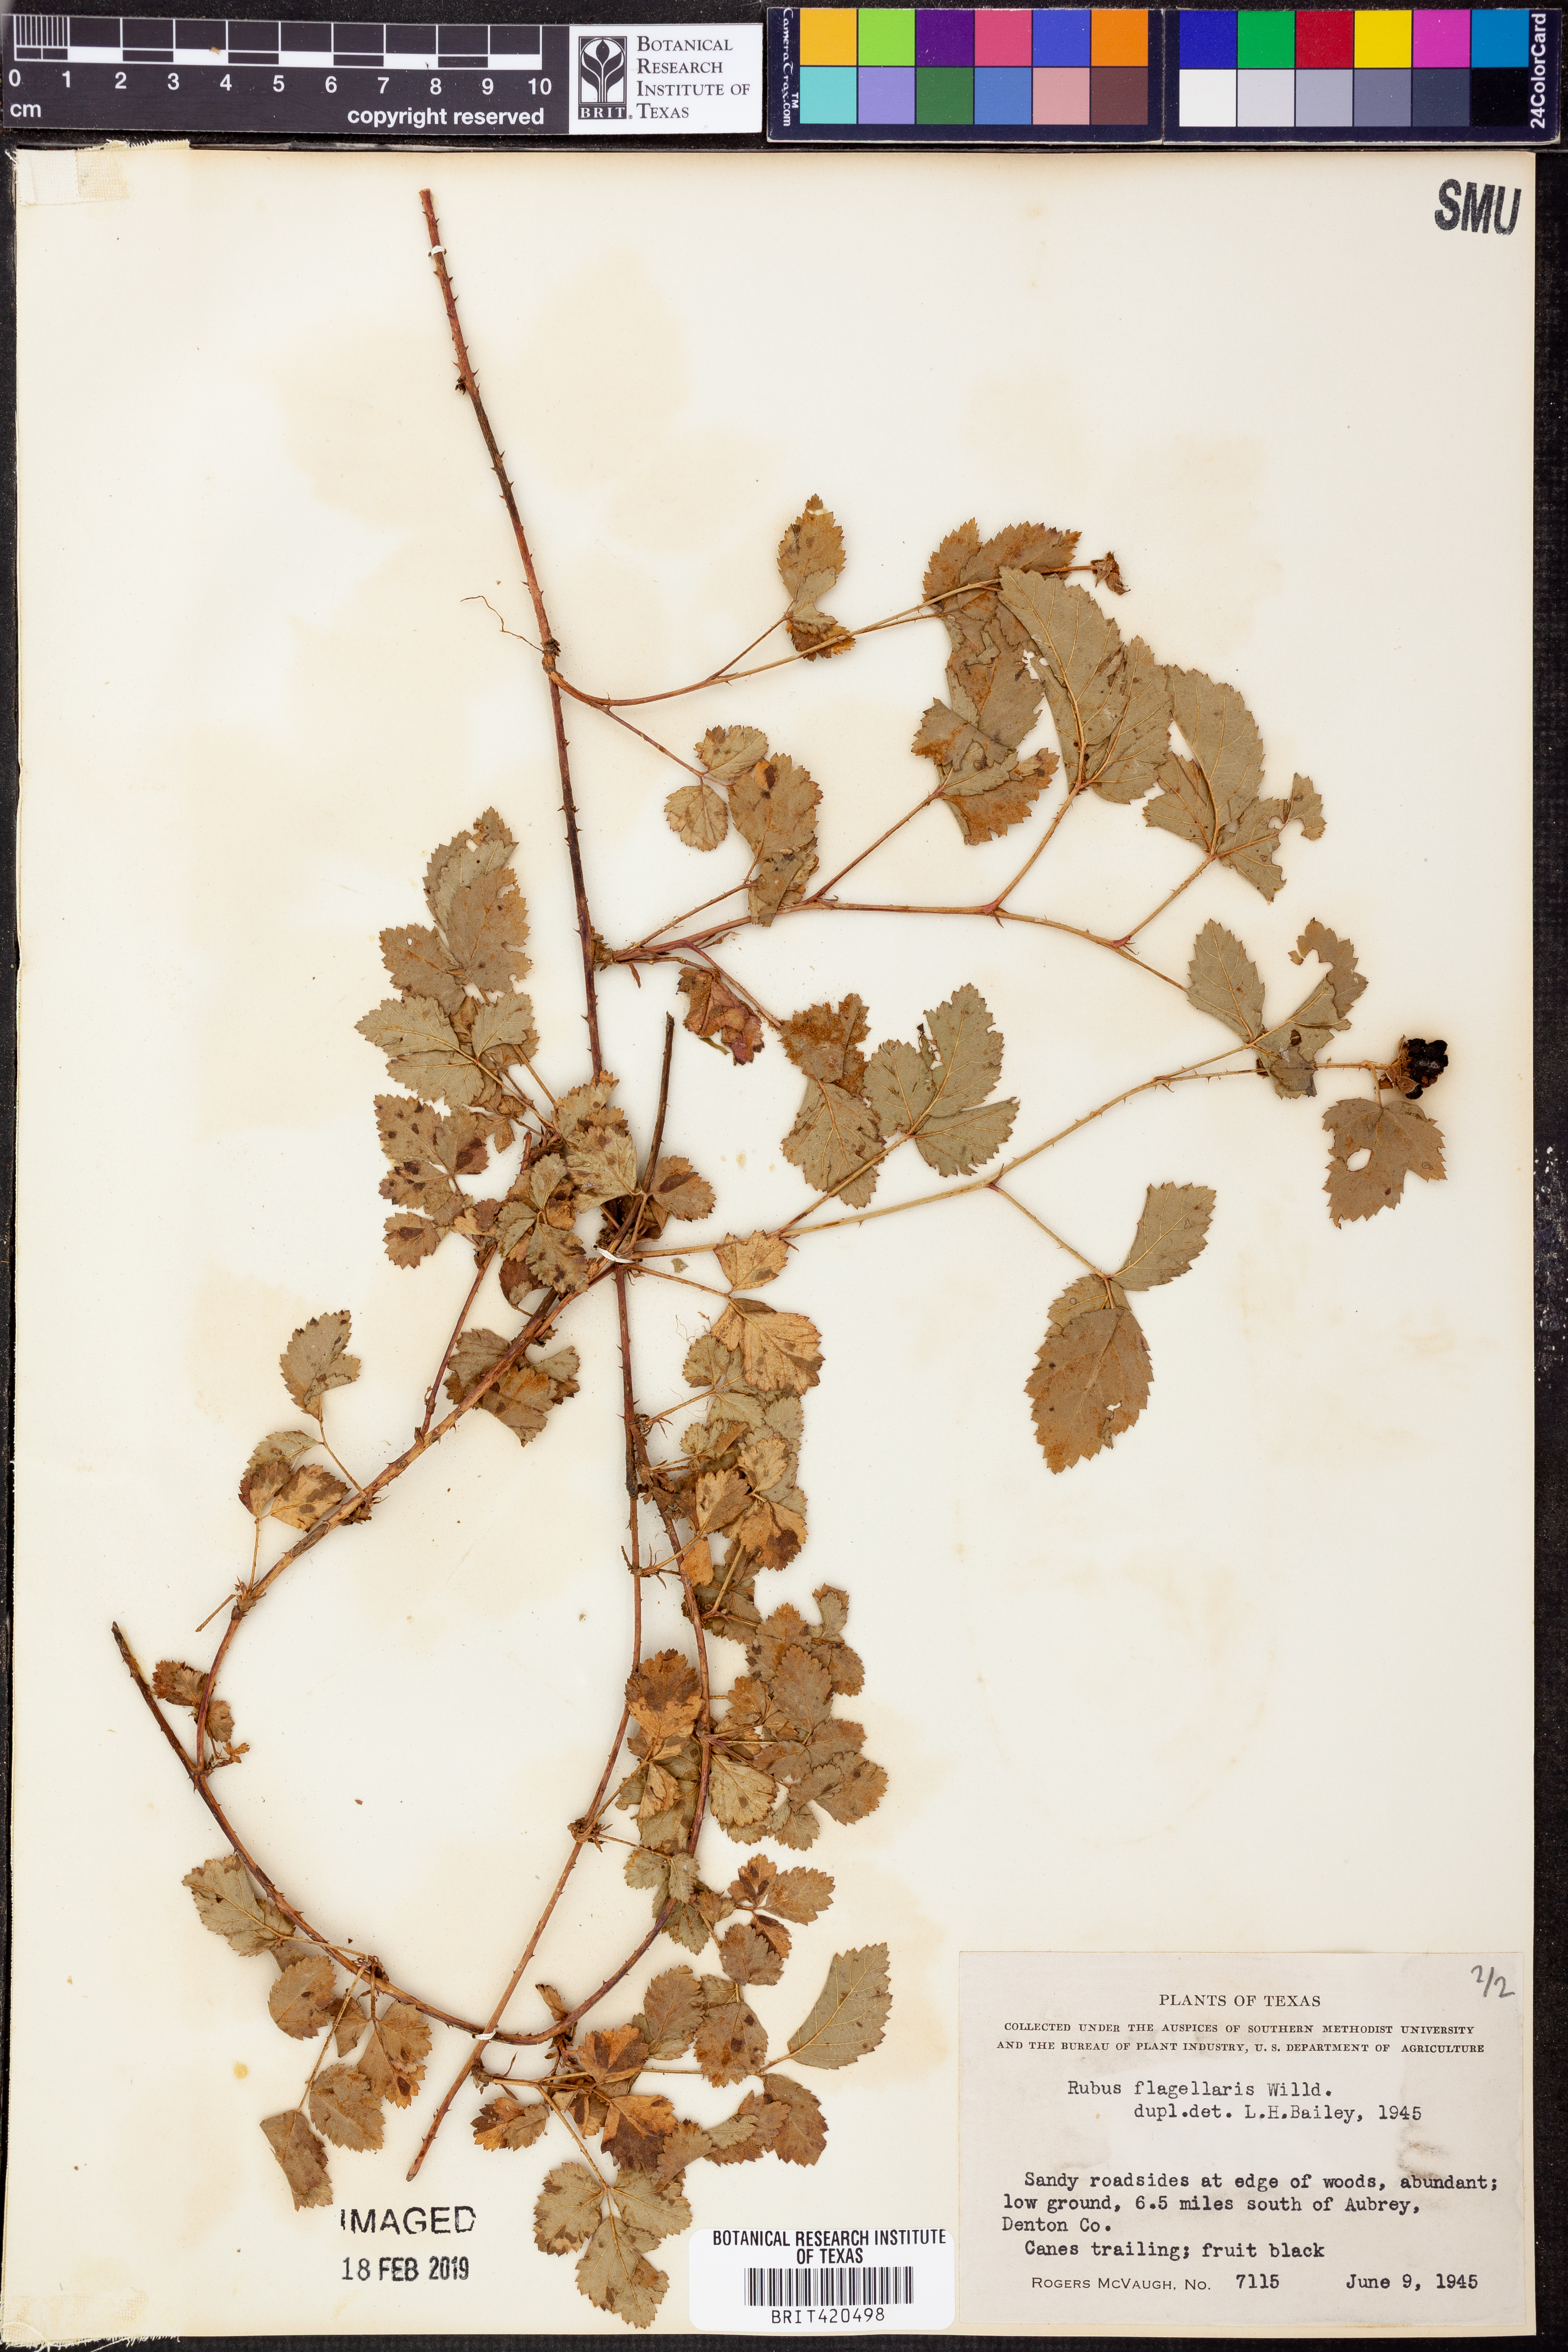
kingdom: Plantae
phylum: Tracheophyta
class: Magnoliopsida
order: Rosales
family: Rosaceae
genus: Rubus
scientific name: Rubus flagellaris
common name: American dewberry
